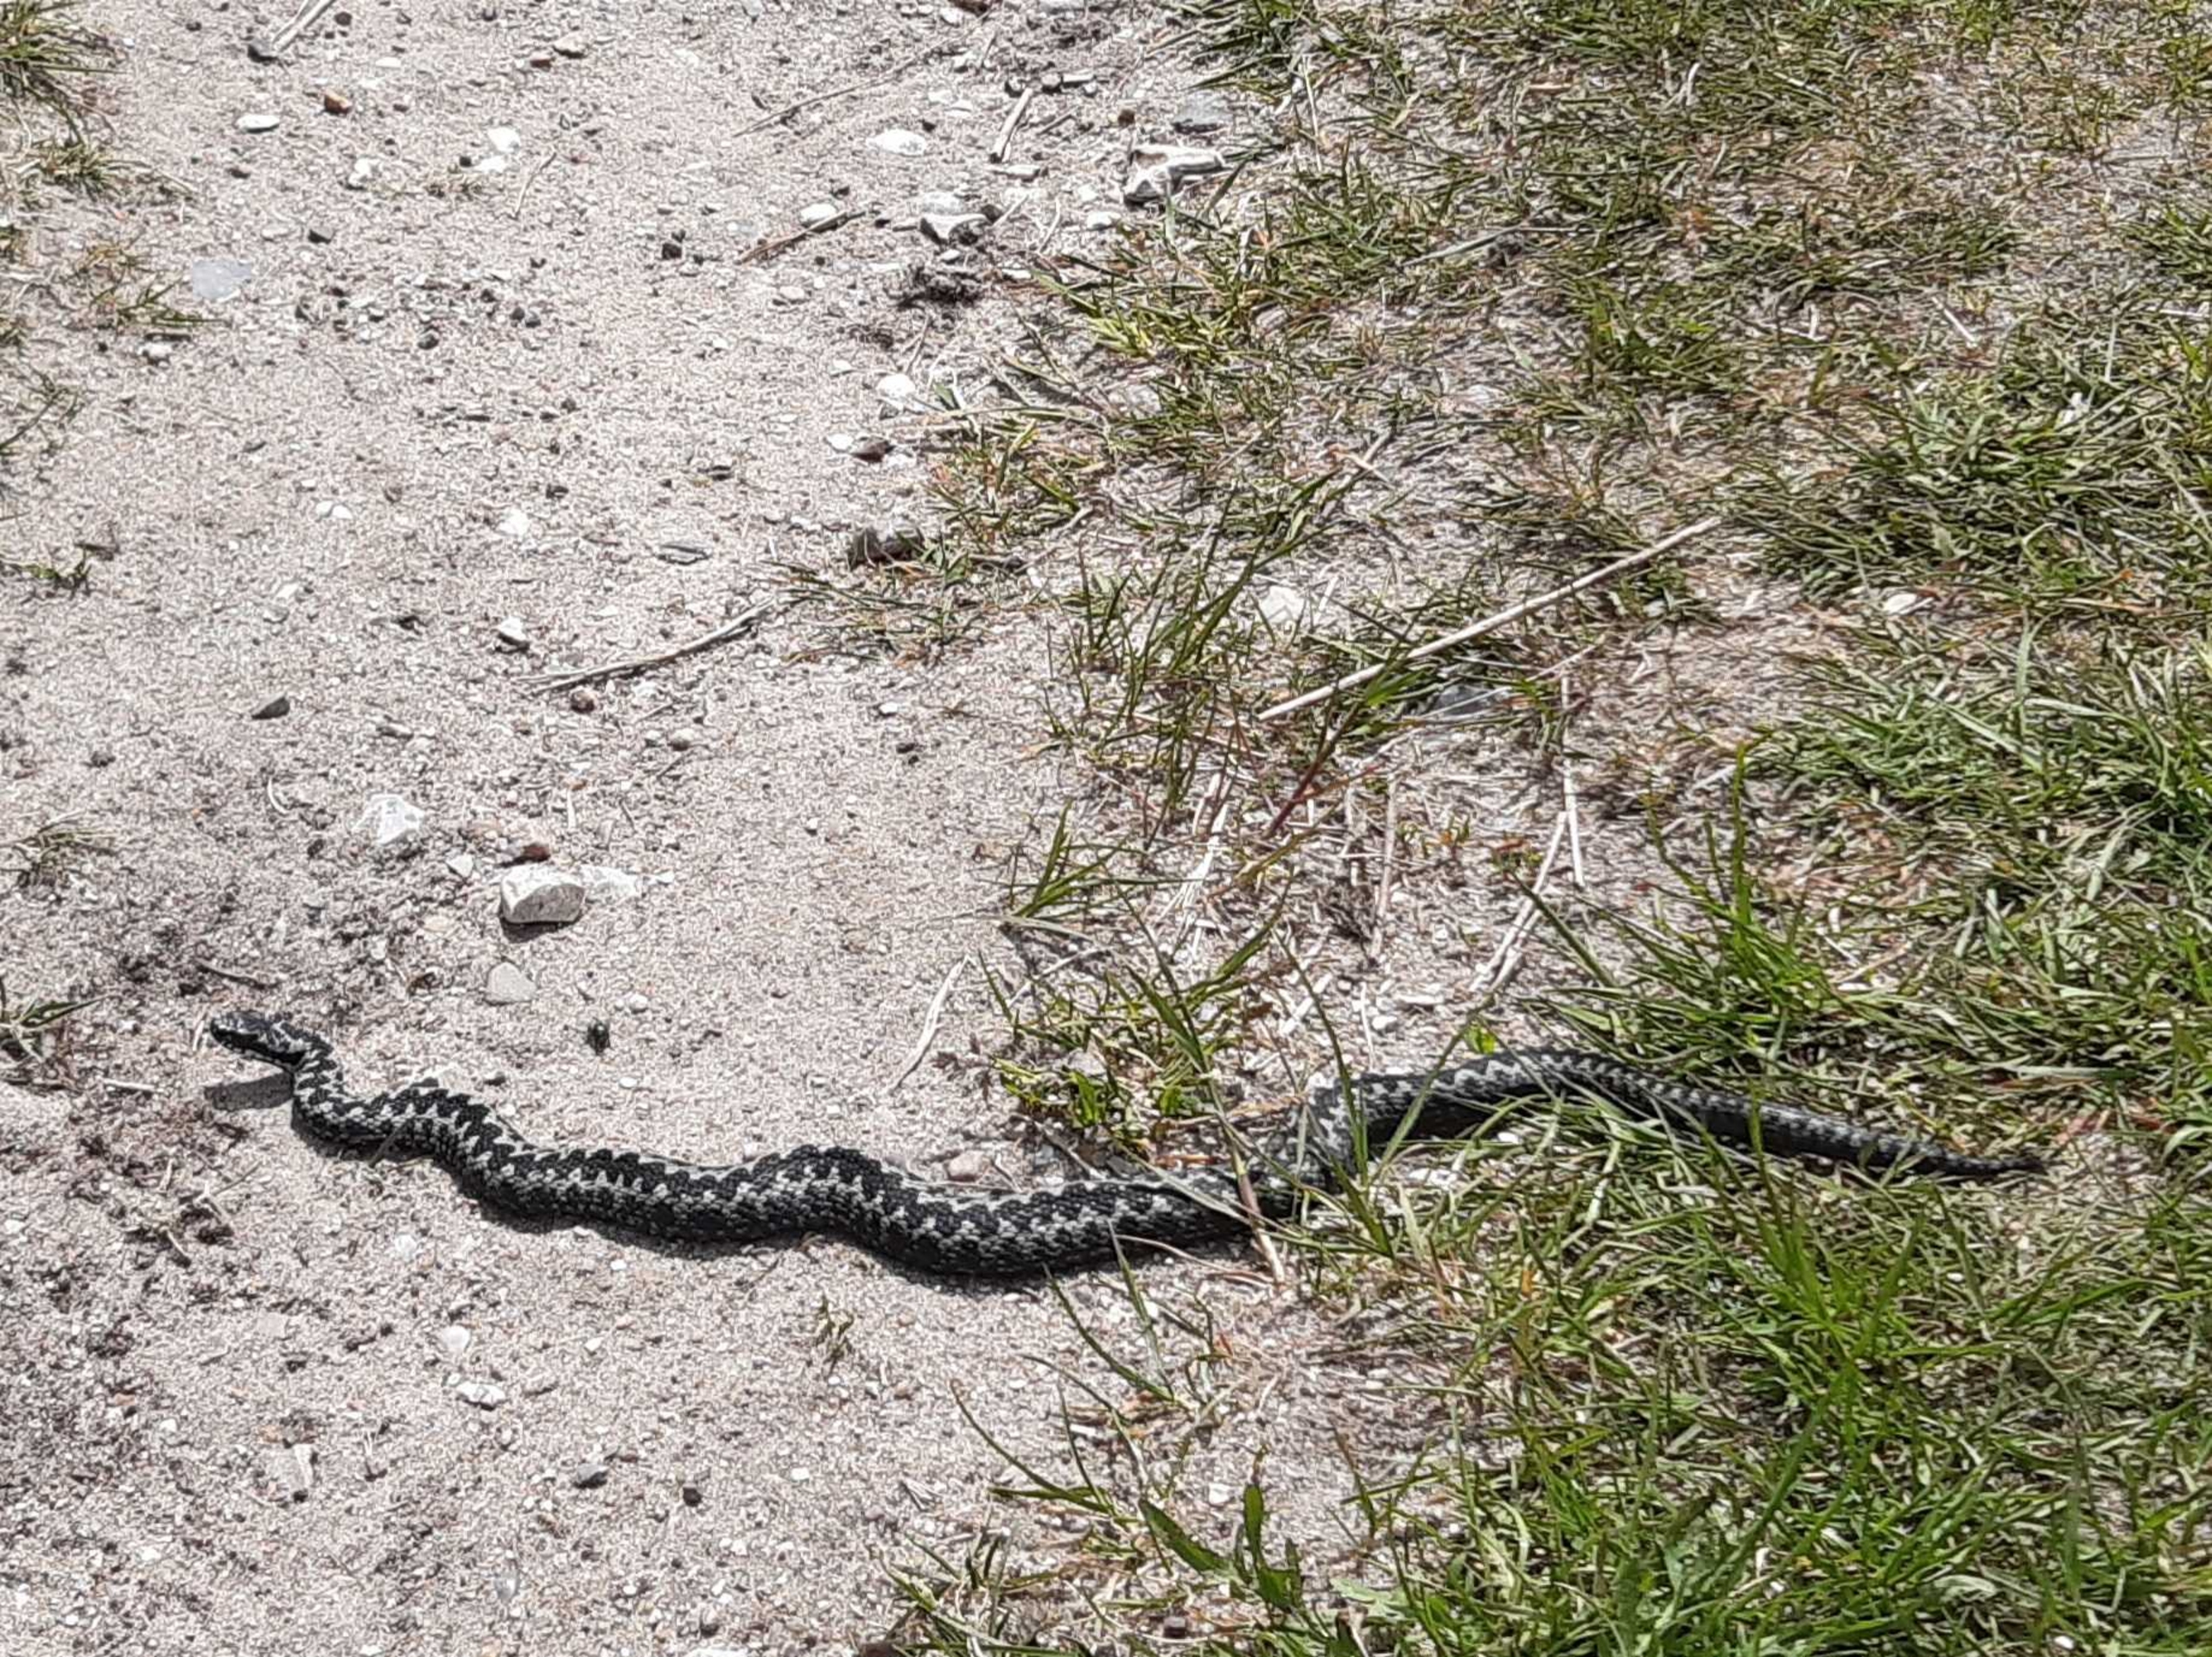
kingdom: Animalia
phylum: Chordata
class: Squamata
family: Viperidae
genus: Vipera
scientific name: Vipera berus
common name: Hugorm
